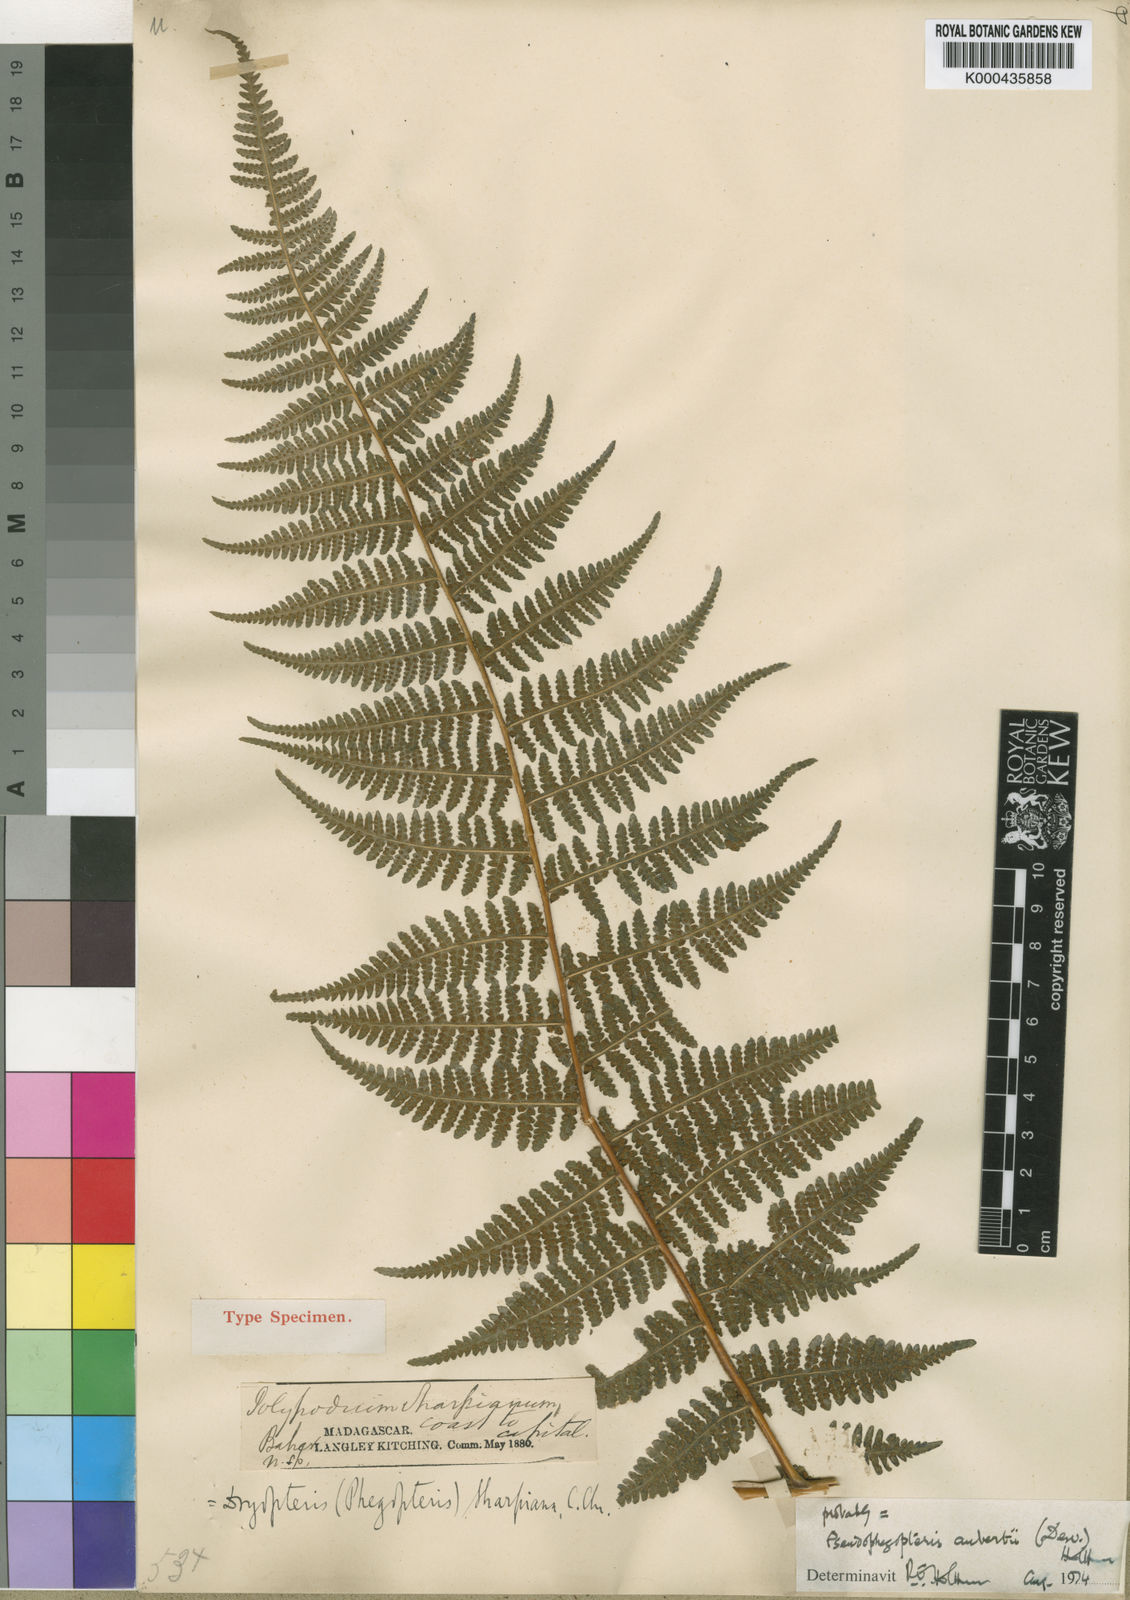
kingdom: Plantae
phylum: Tracheophyta
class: Polypodiopsida
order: Polypodiales
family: Thelypteridaceae
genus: Pseudophegopteris
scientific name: Pseudophegopteris aubertii
